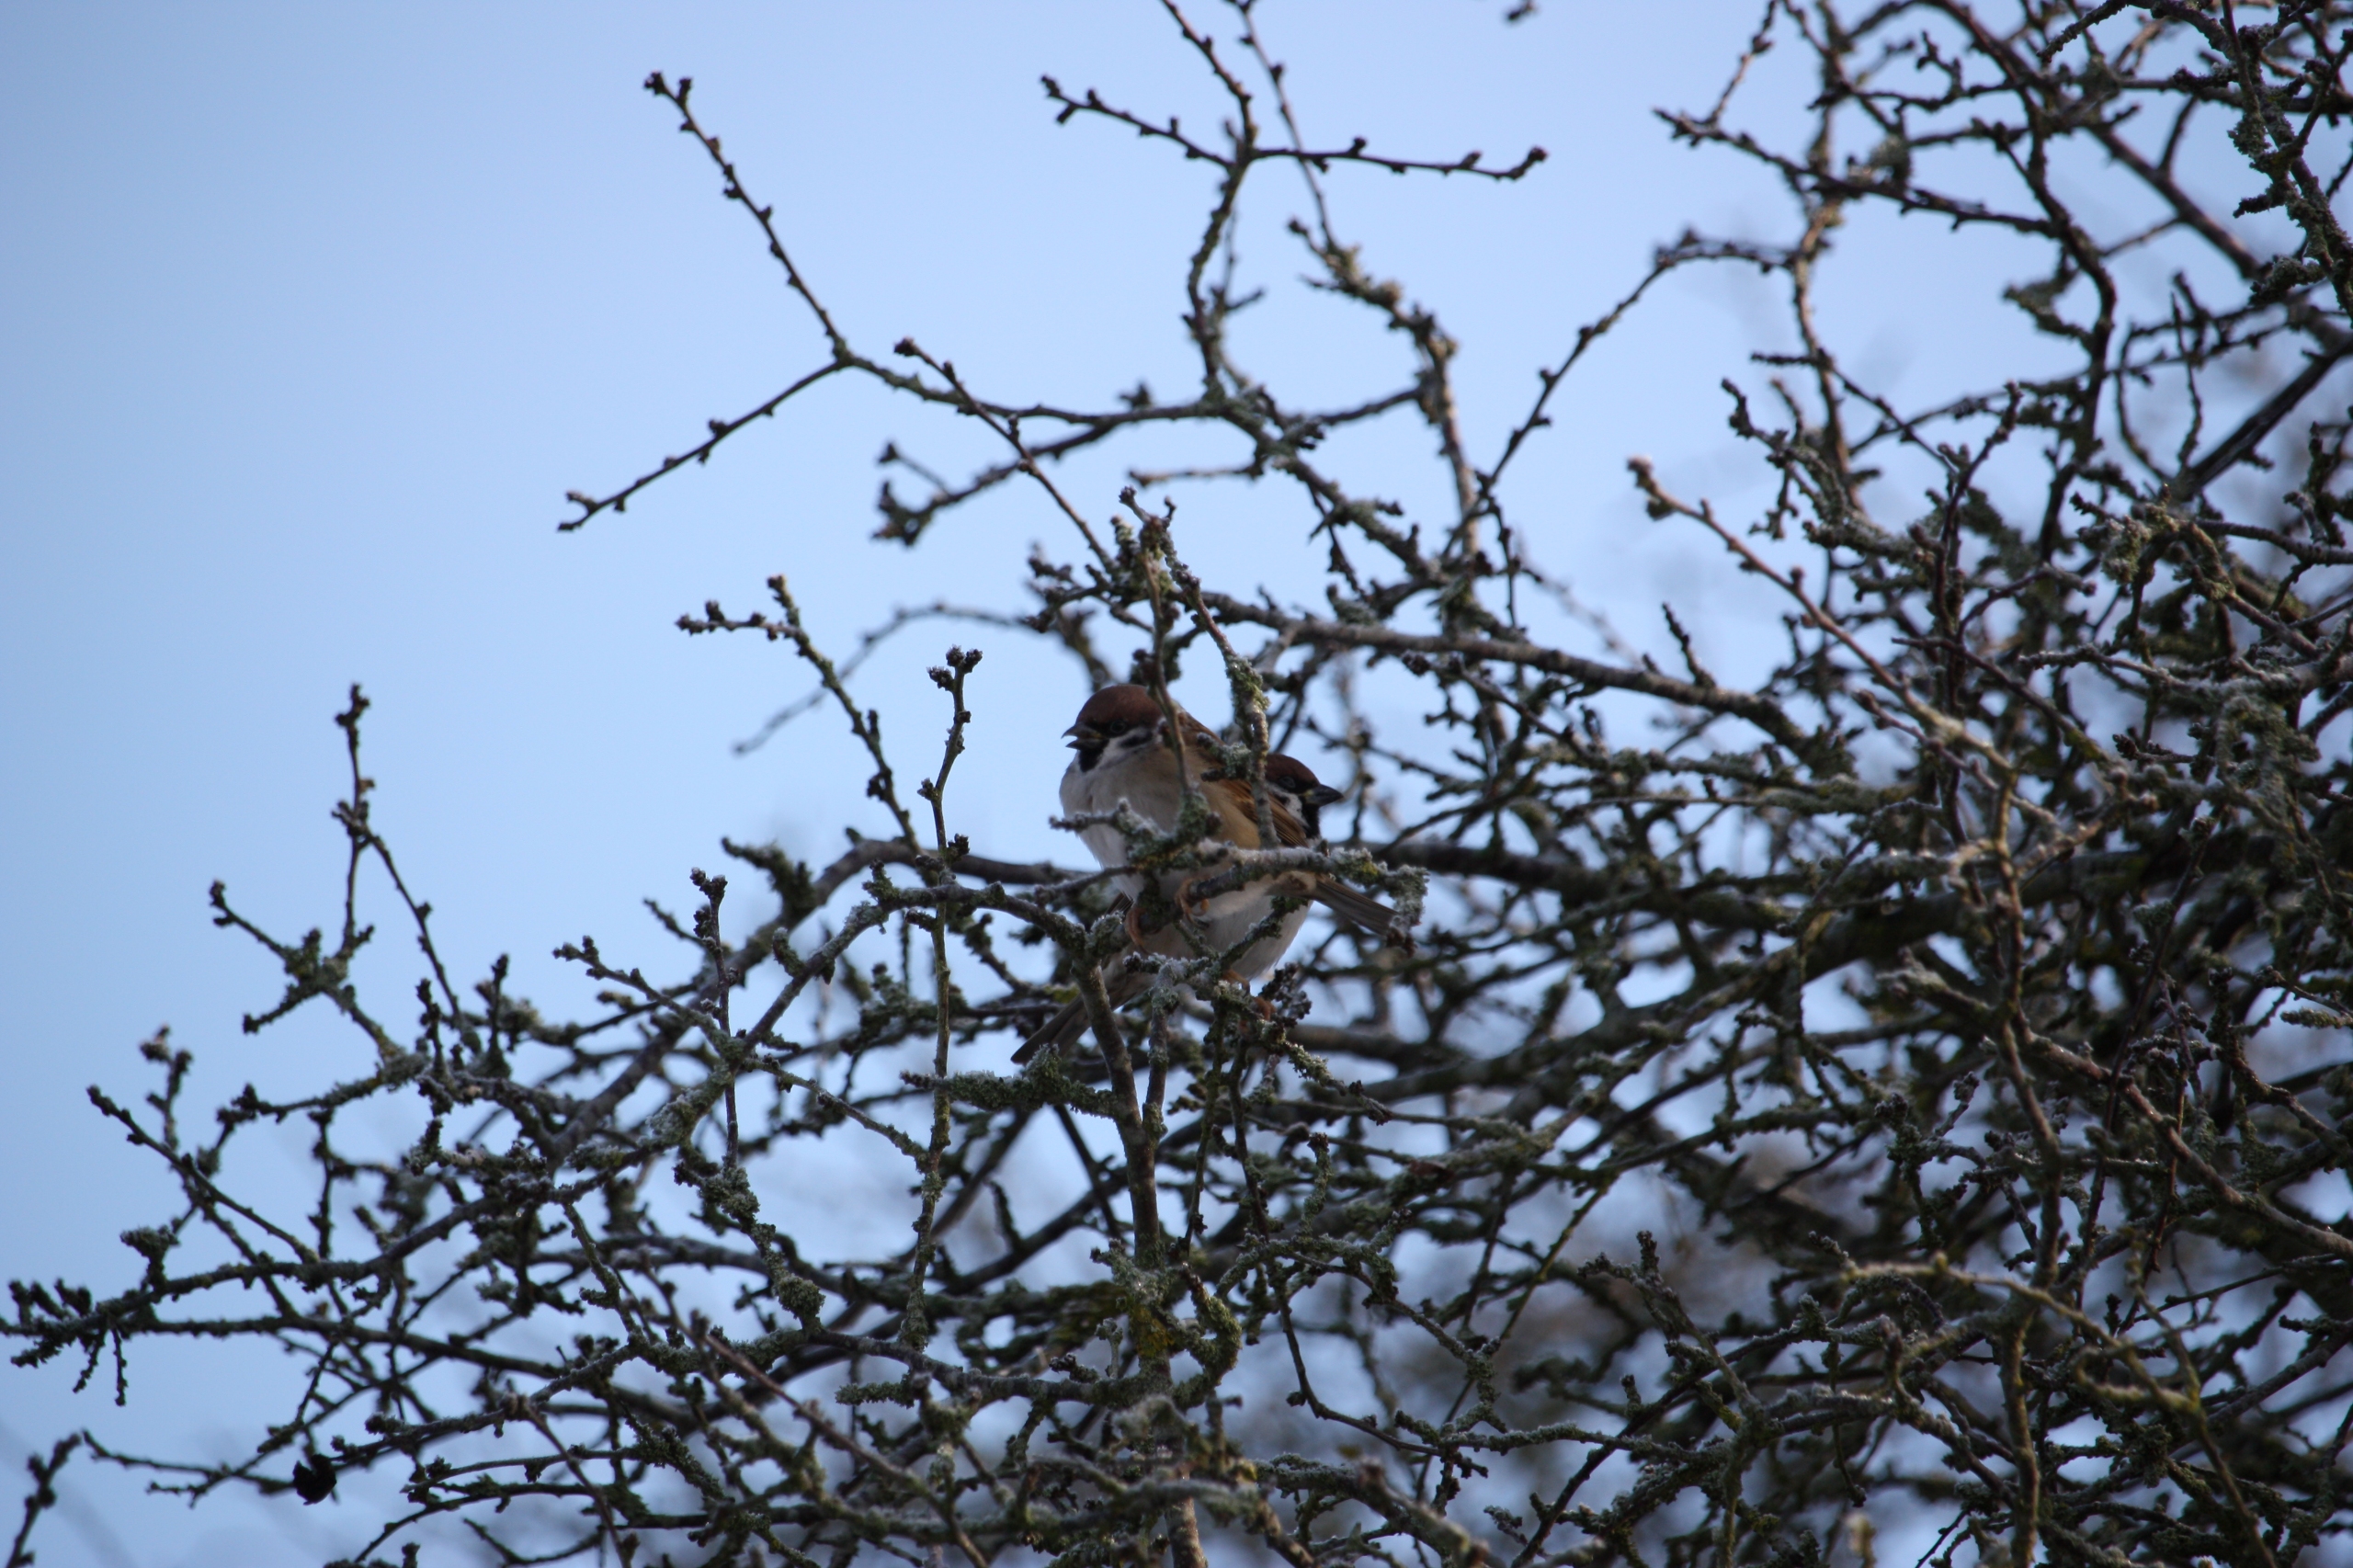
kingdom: Animalia
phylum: Chordata
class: Aves
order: Passeriformes
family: Passeridae
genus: Passer
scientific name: Passer montanus
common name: Skovspurv
